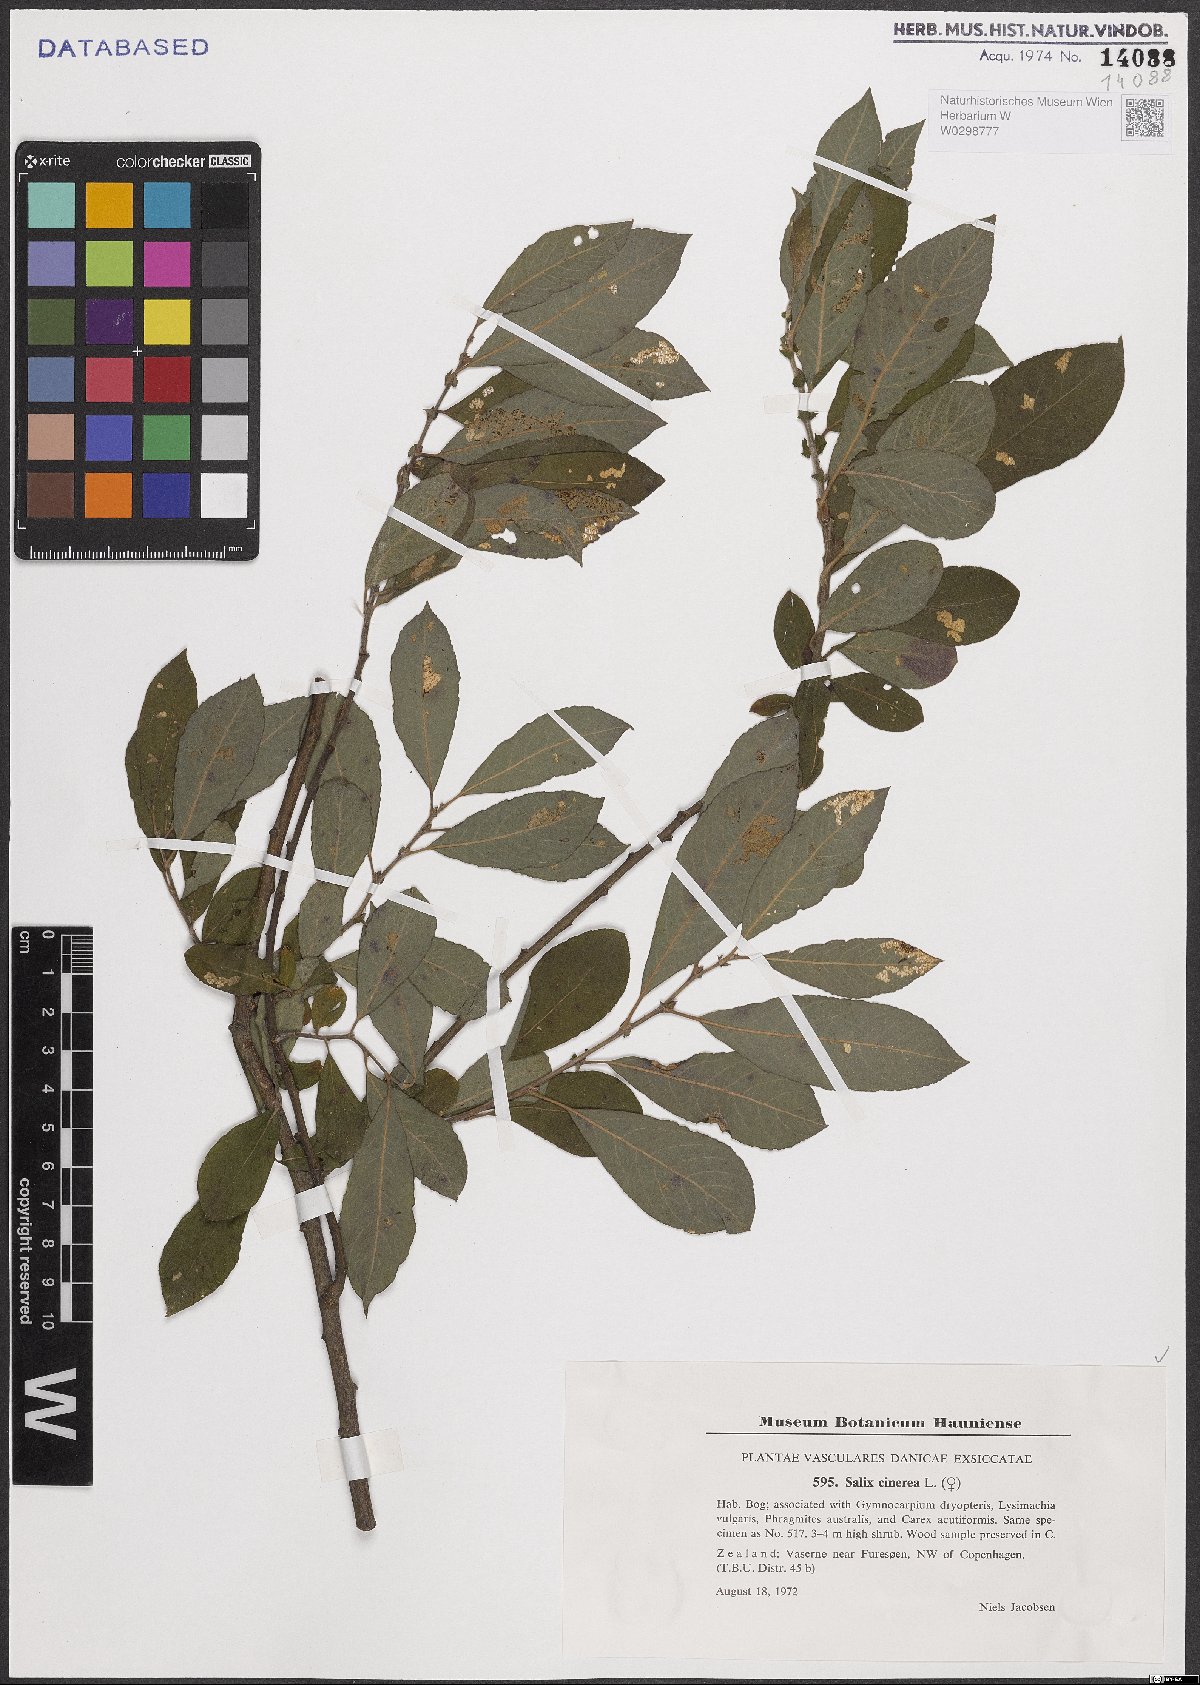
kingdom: Plantae
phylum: Tracheophyta
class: Magnoliopsida
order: Malpighiales
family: Salicaceae
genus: Salix
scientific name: Salix cinerea
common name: Common sallow
